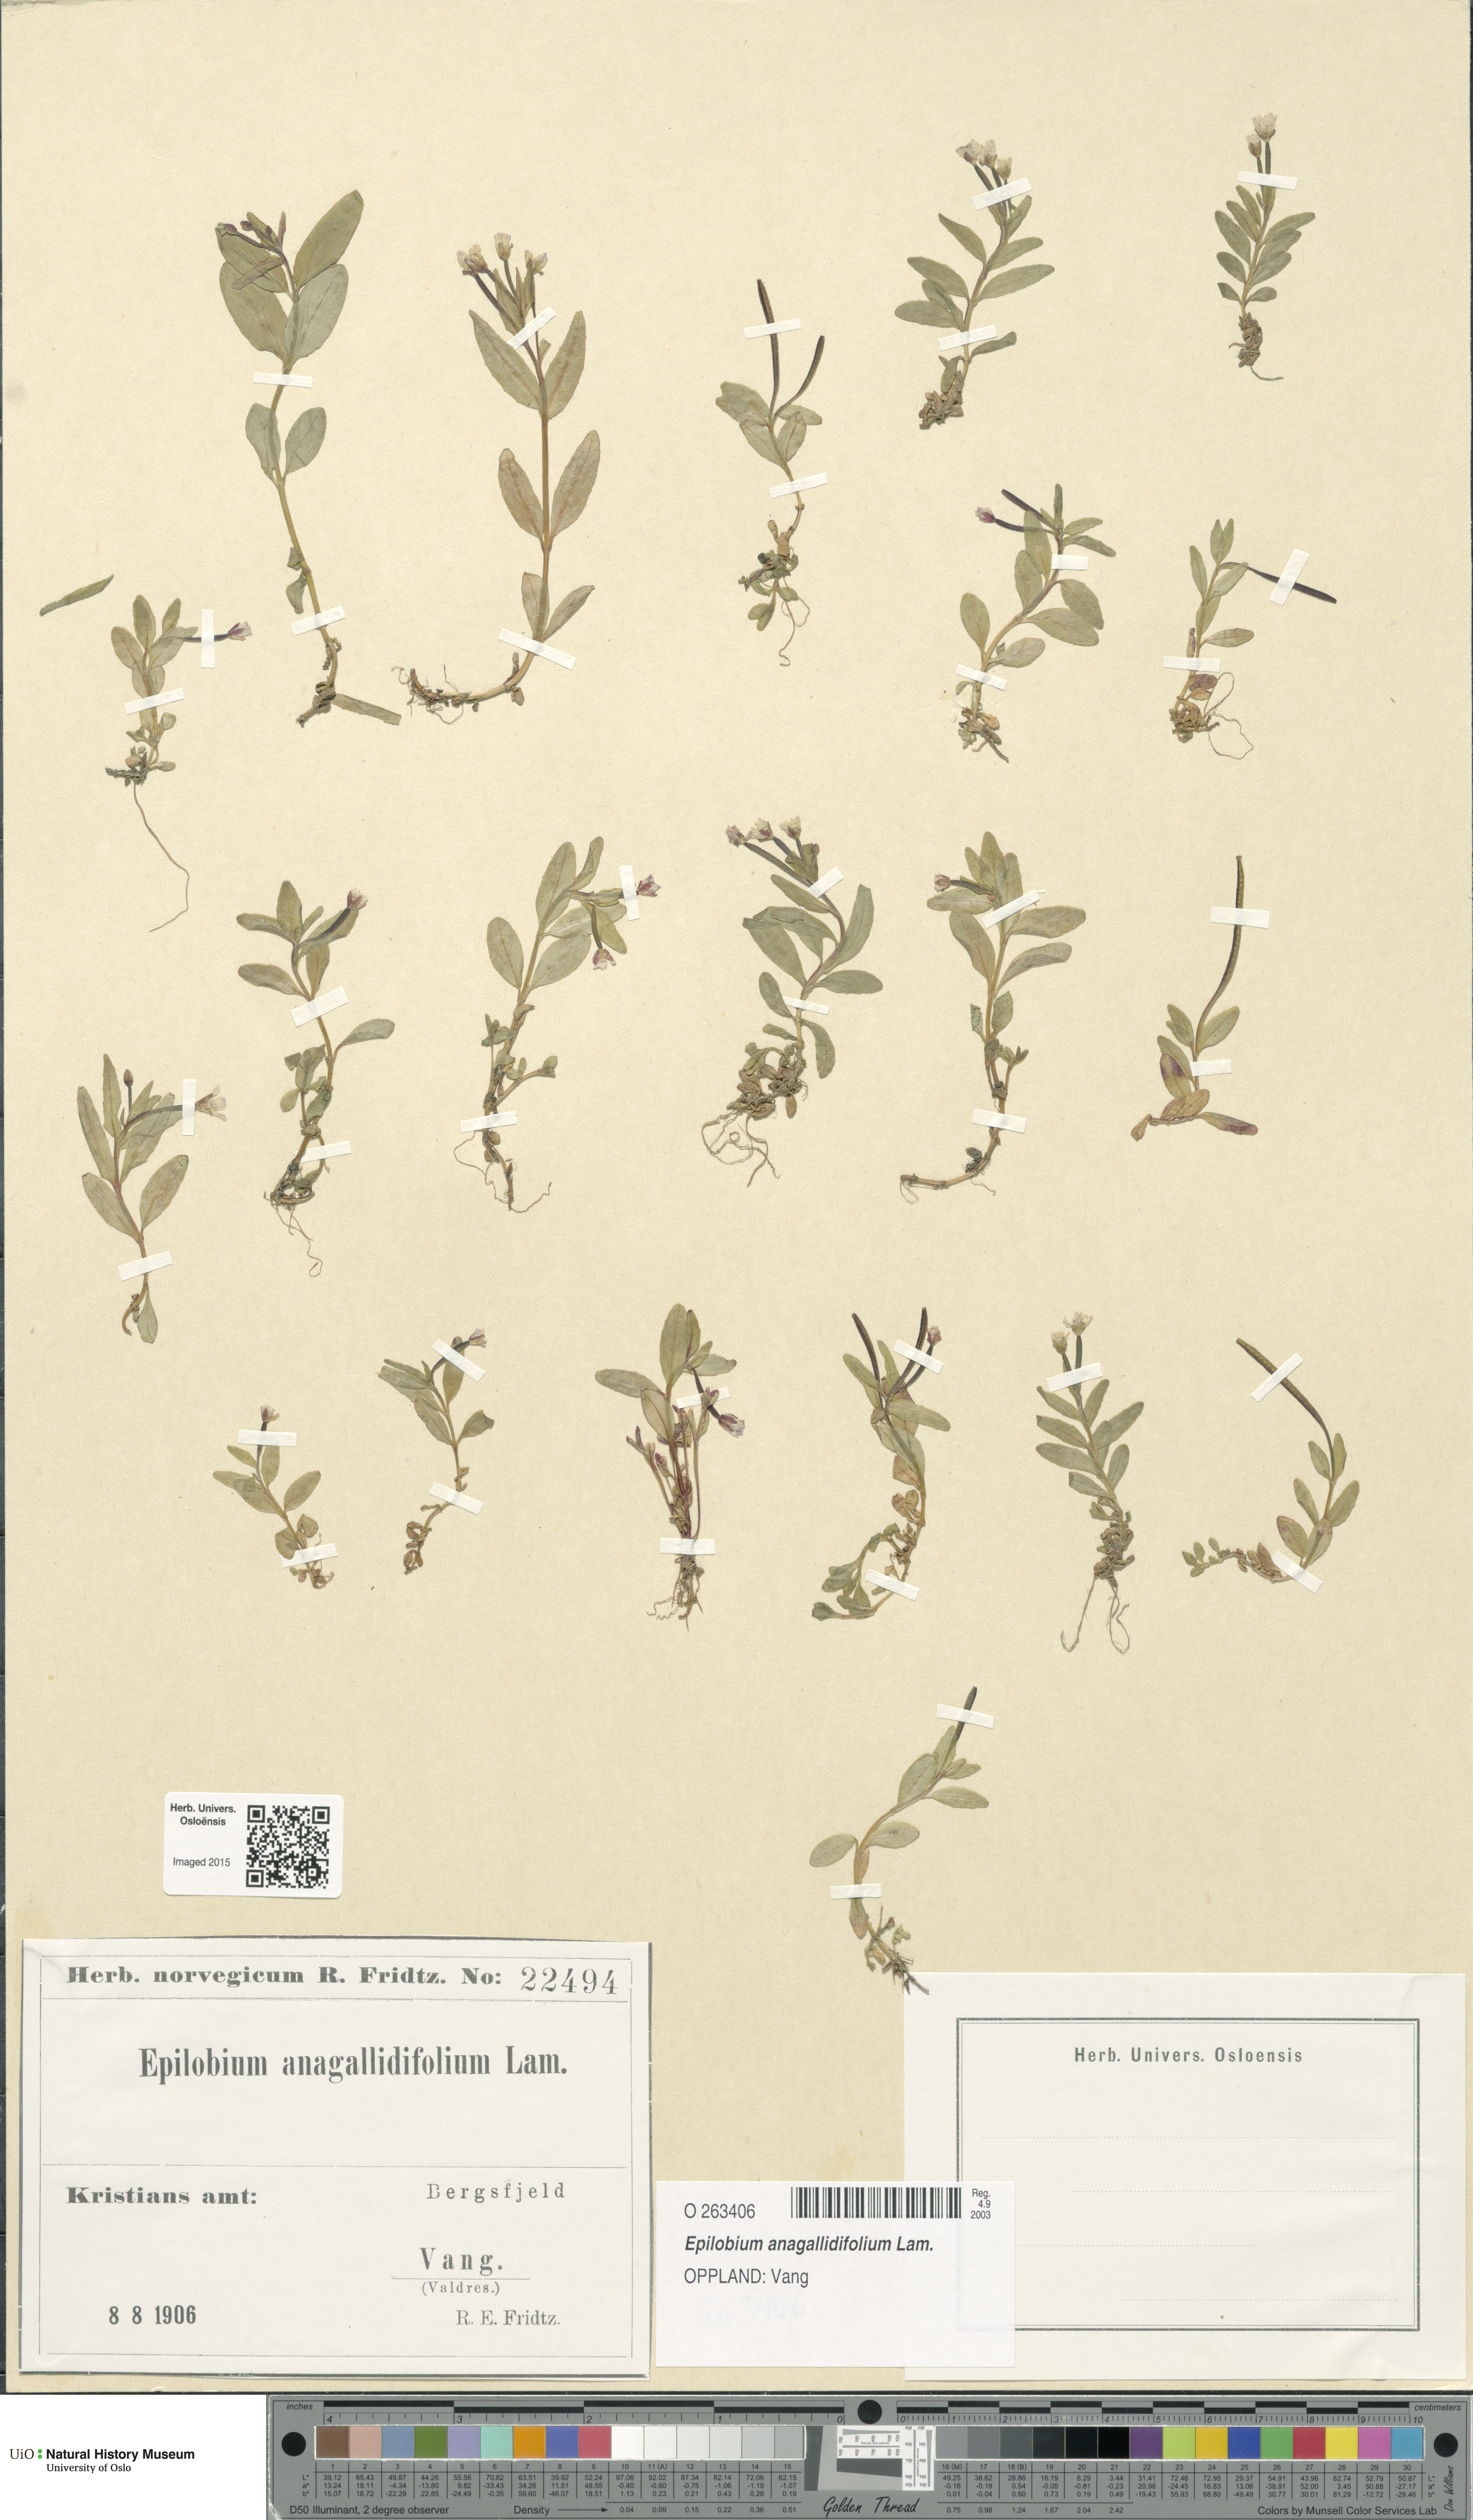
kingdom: Plantae
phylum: Tracheophyta
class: Magnoliopsida
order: Myrtales
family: Onagraceae
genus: Epilobium
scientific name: Epilobium anagallidifolium
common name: Alpine willowherb
